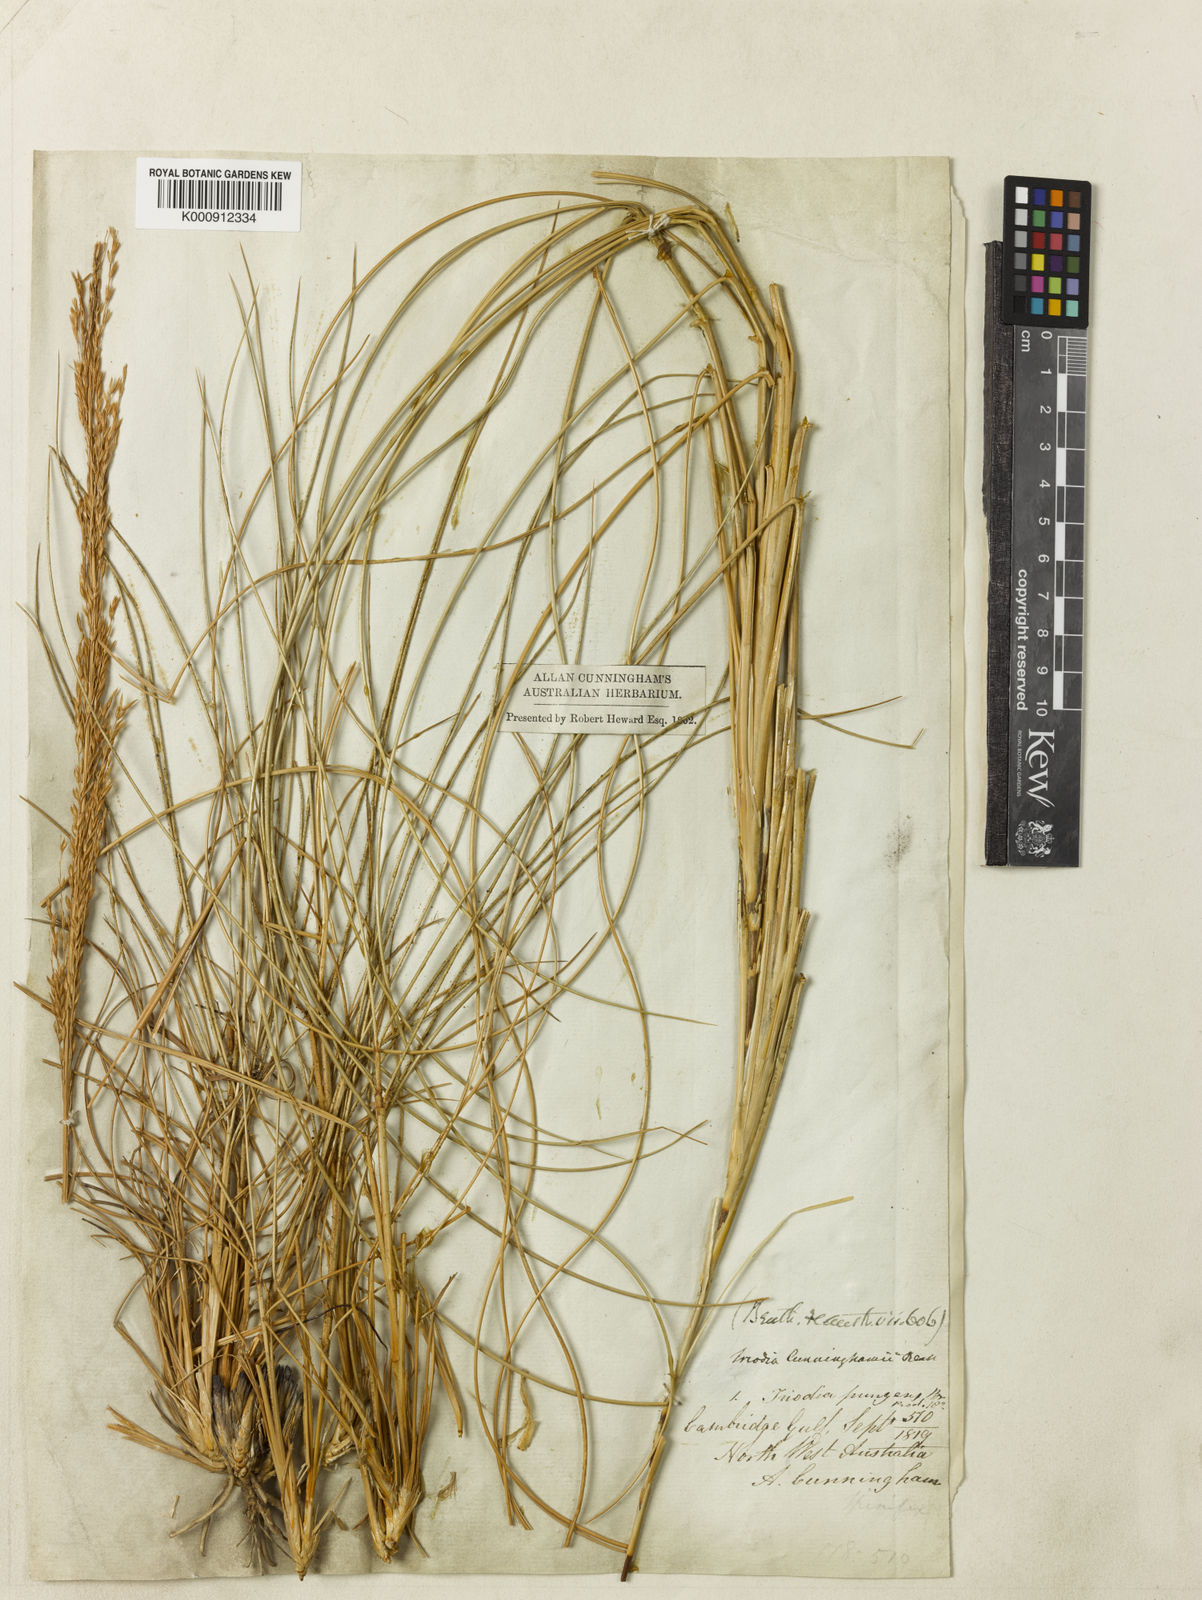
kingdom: Plantae
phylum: Tracheophyta
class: Liliopsida
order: Poales
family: Poaceae
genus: Triodia
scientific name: Triodia cunninghamii
